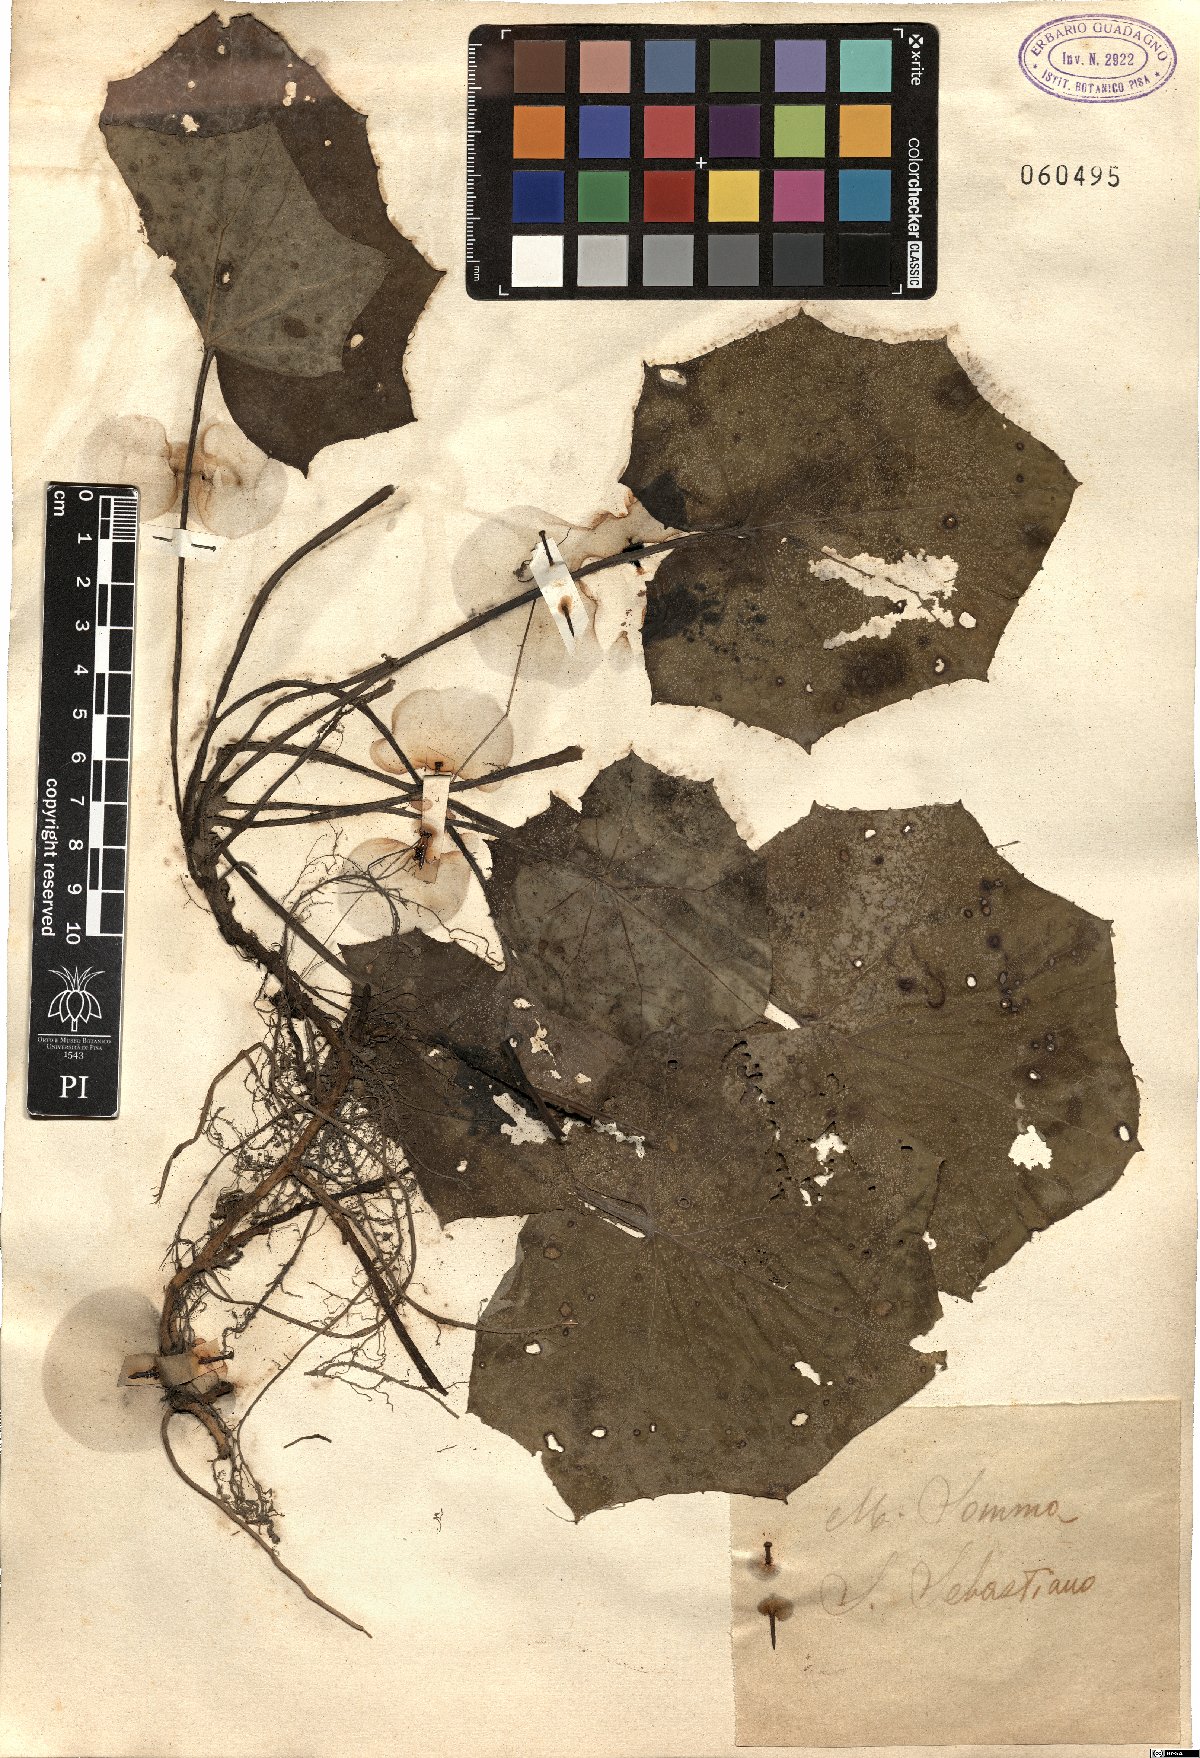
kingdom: Plantae
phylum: Tracheophyta
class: Magnoliopsida
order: Asterales
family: Asteraceae
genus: Tussilago
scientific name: Tussilago farfara
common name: Coltsfoot
